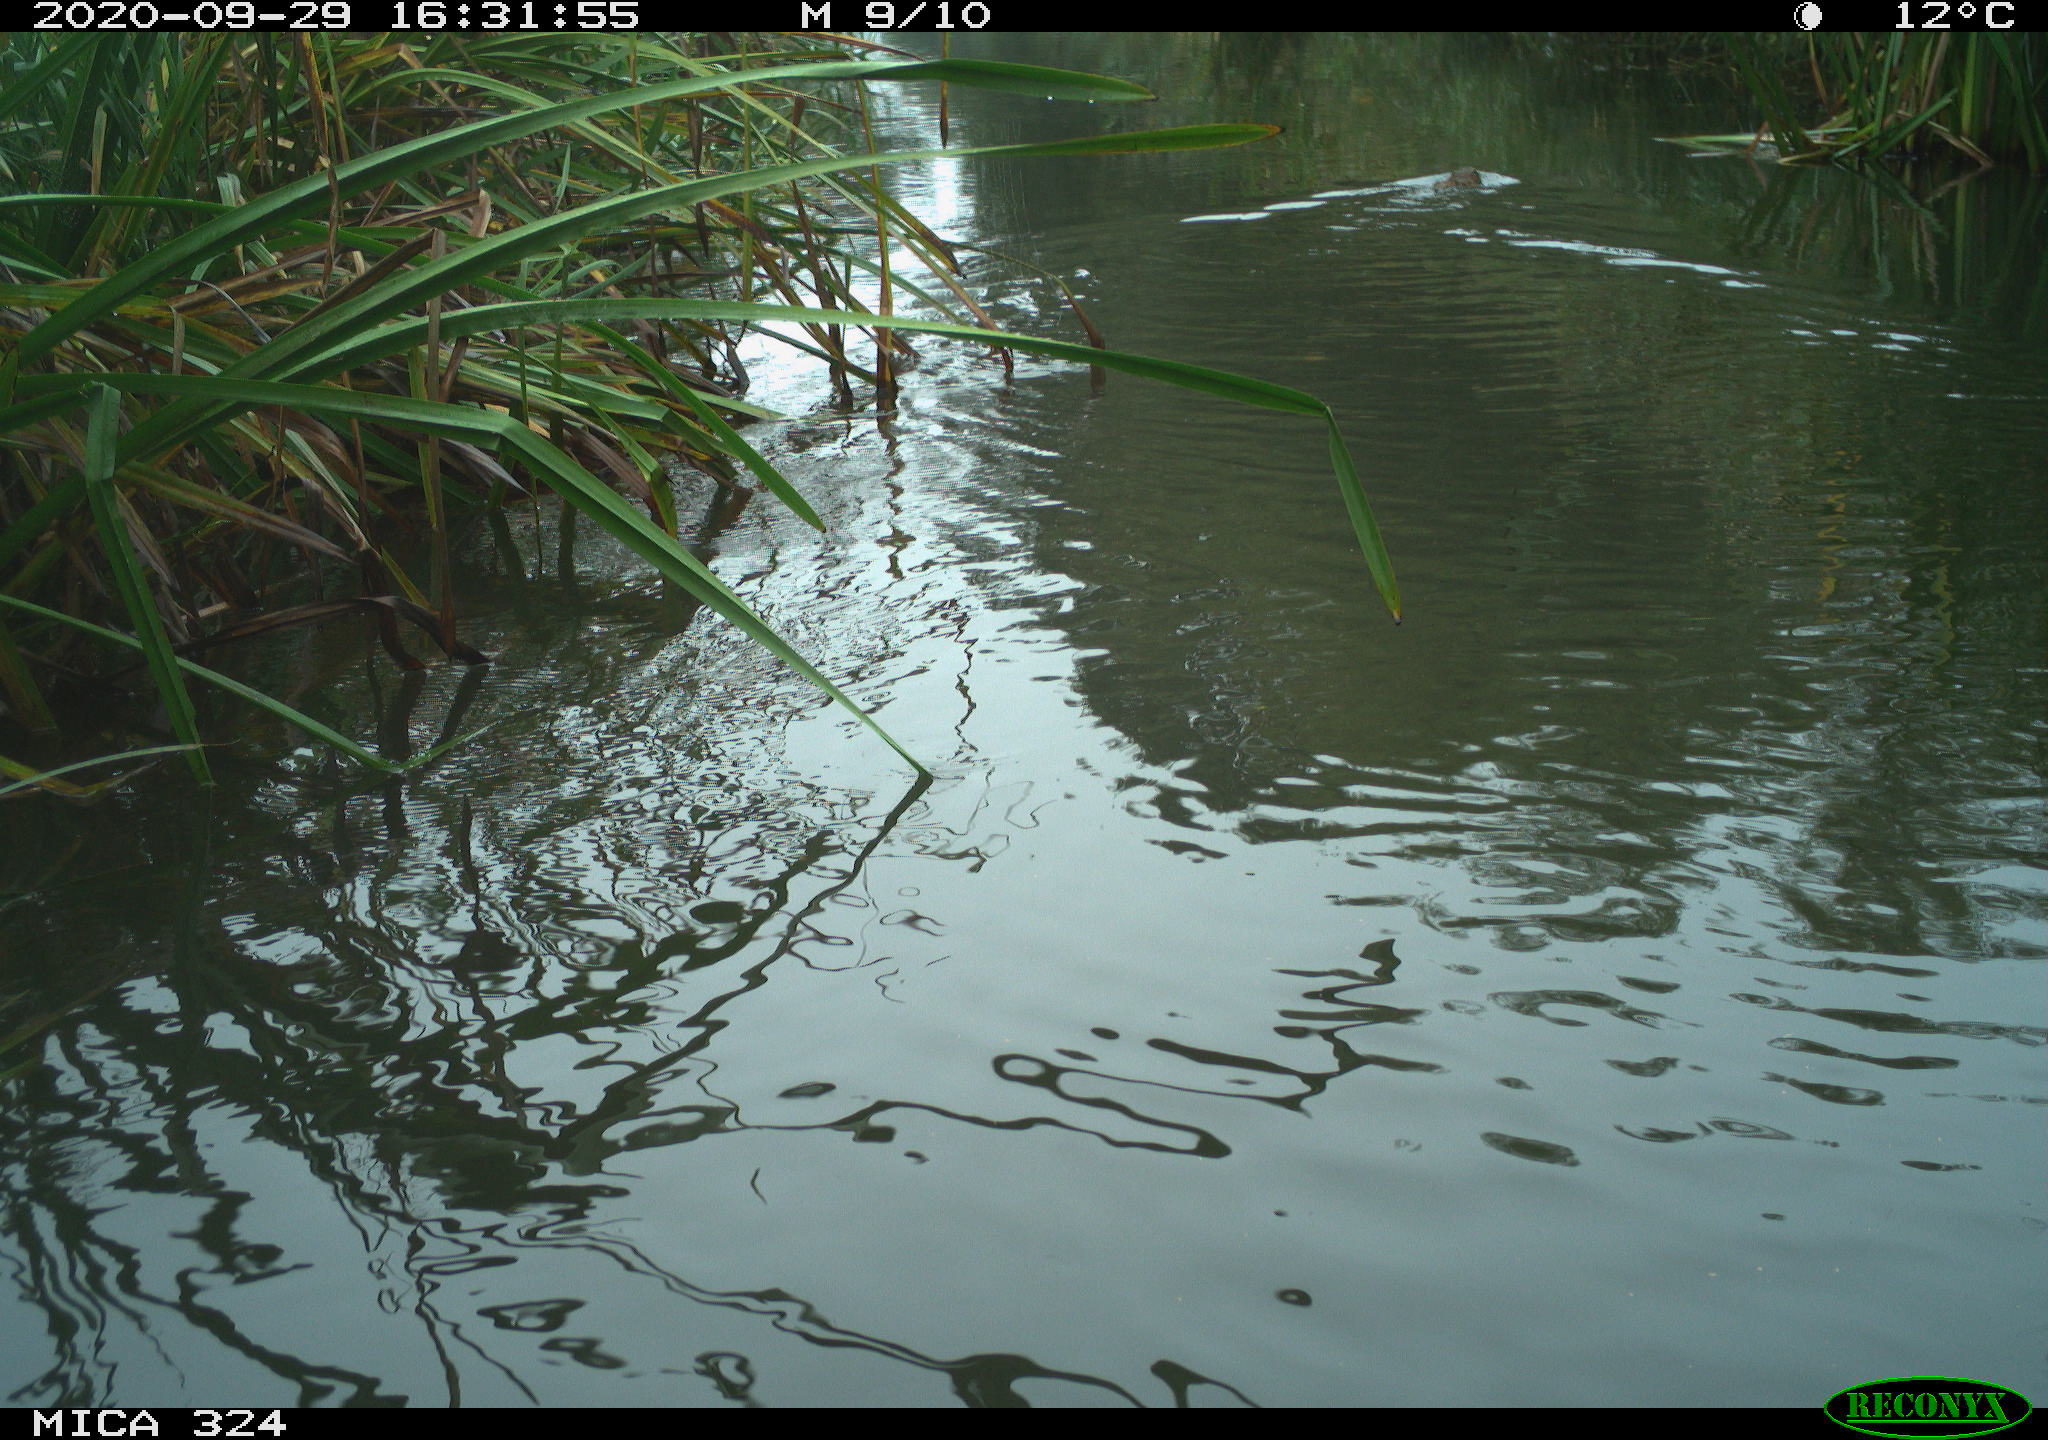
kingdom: Animalia
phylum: Chordata
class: Mammalia
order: Rodentia
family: Cricetidae
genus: Ondatra
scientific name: Ondatra zibethicus
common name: Muskrat
